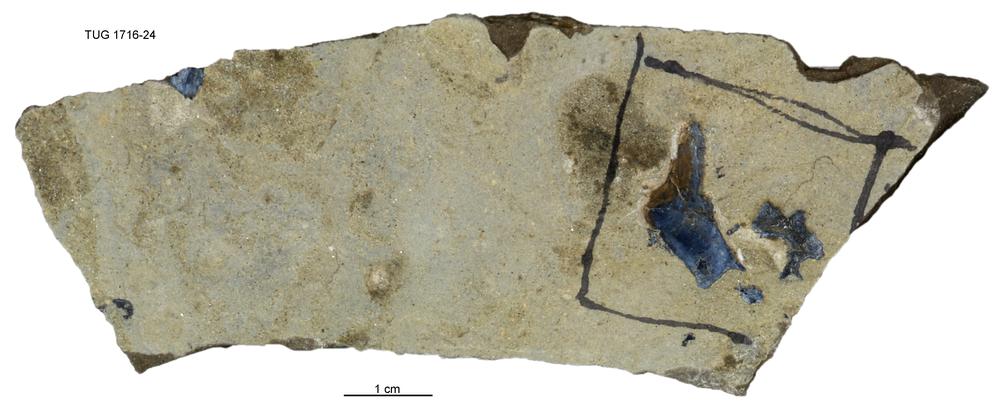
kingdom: Animalia
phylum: Chordata
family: Coccosteidae
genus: Millerosteus
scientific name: Millerosteus minor
